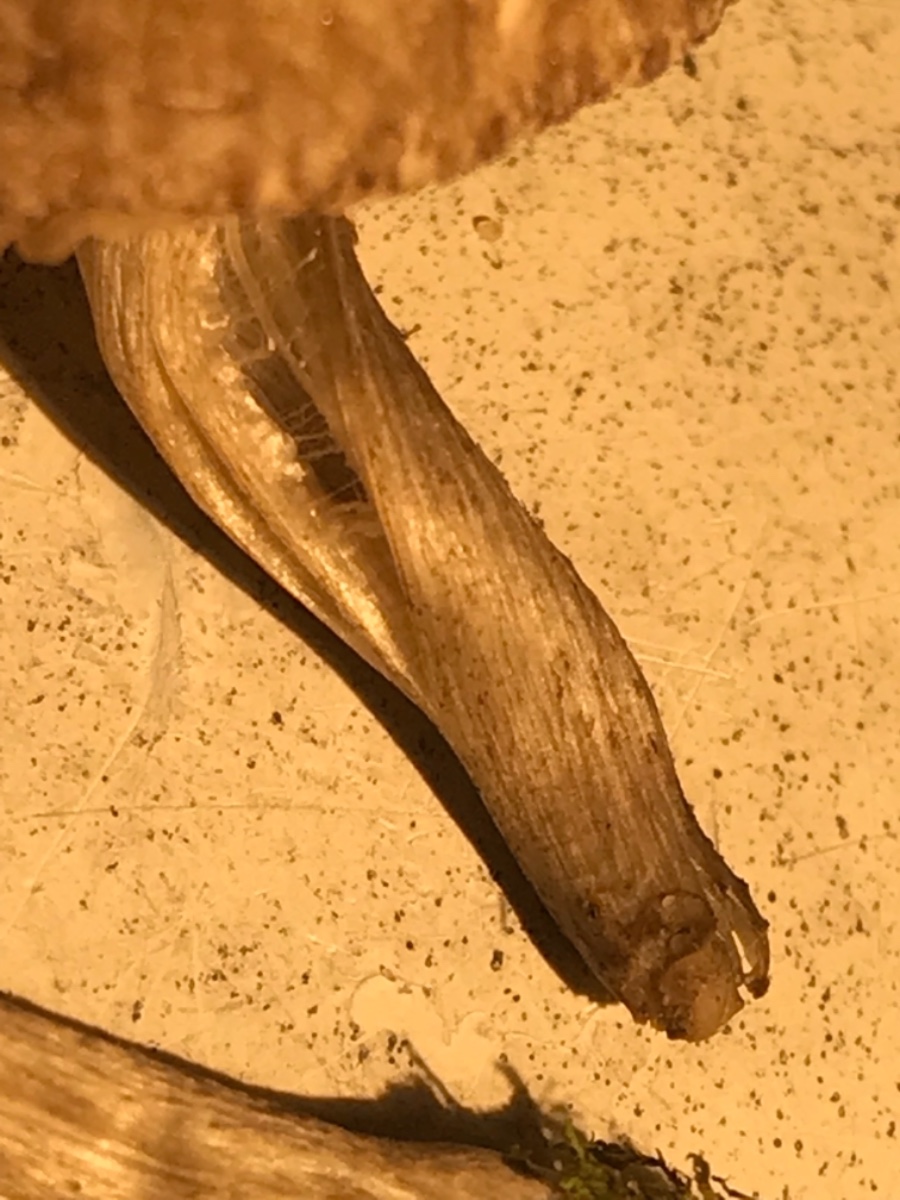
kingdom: Fungi
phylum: Basidiomycota
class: Agaricomycetes
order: Agaricales
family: Pluteaceae
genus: Pluteus
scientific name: Pluteus
